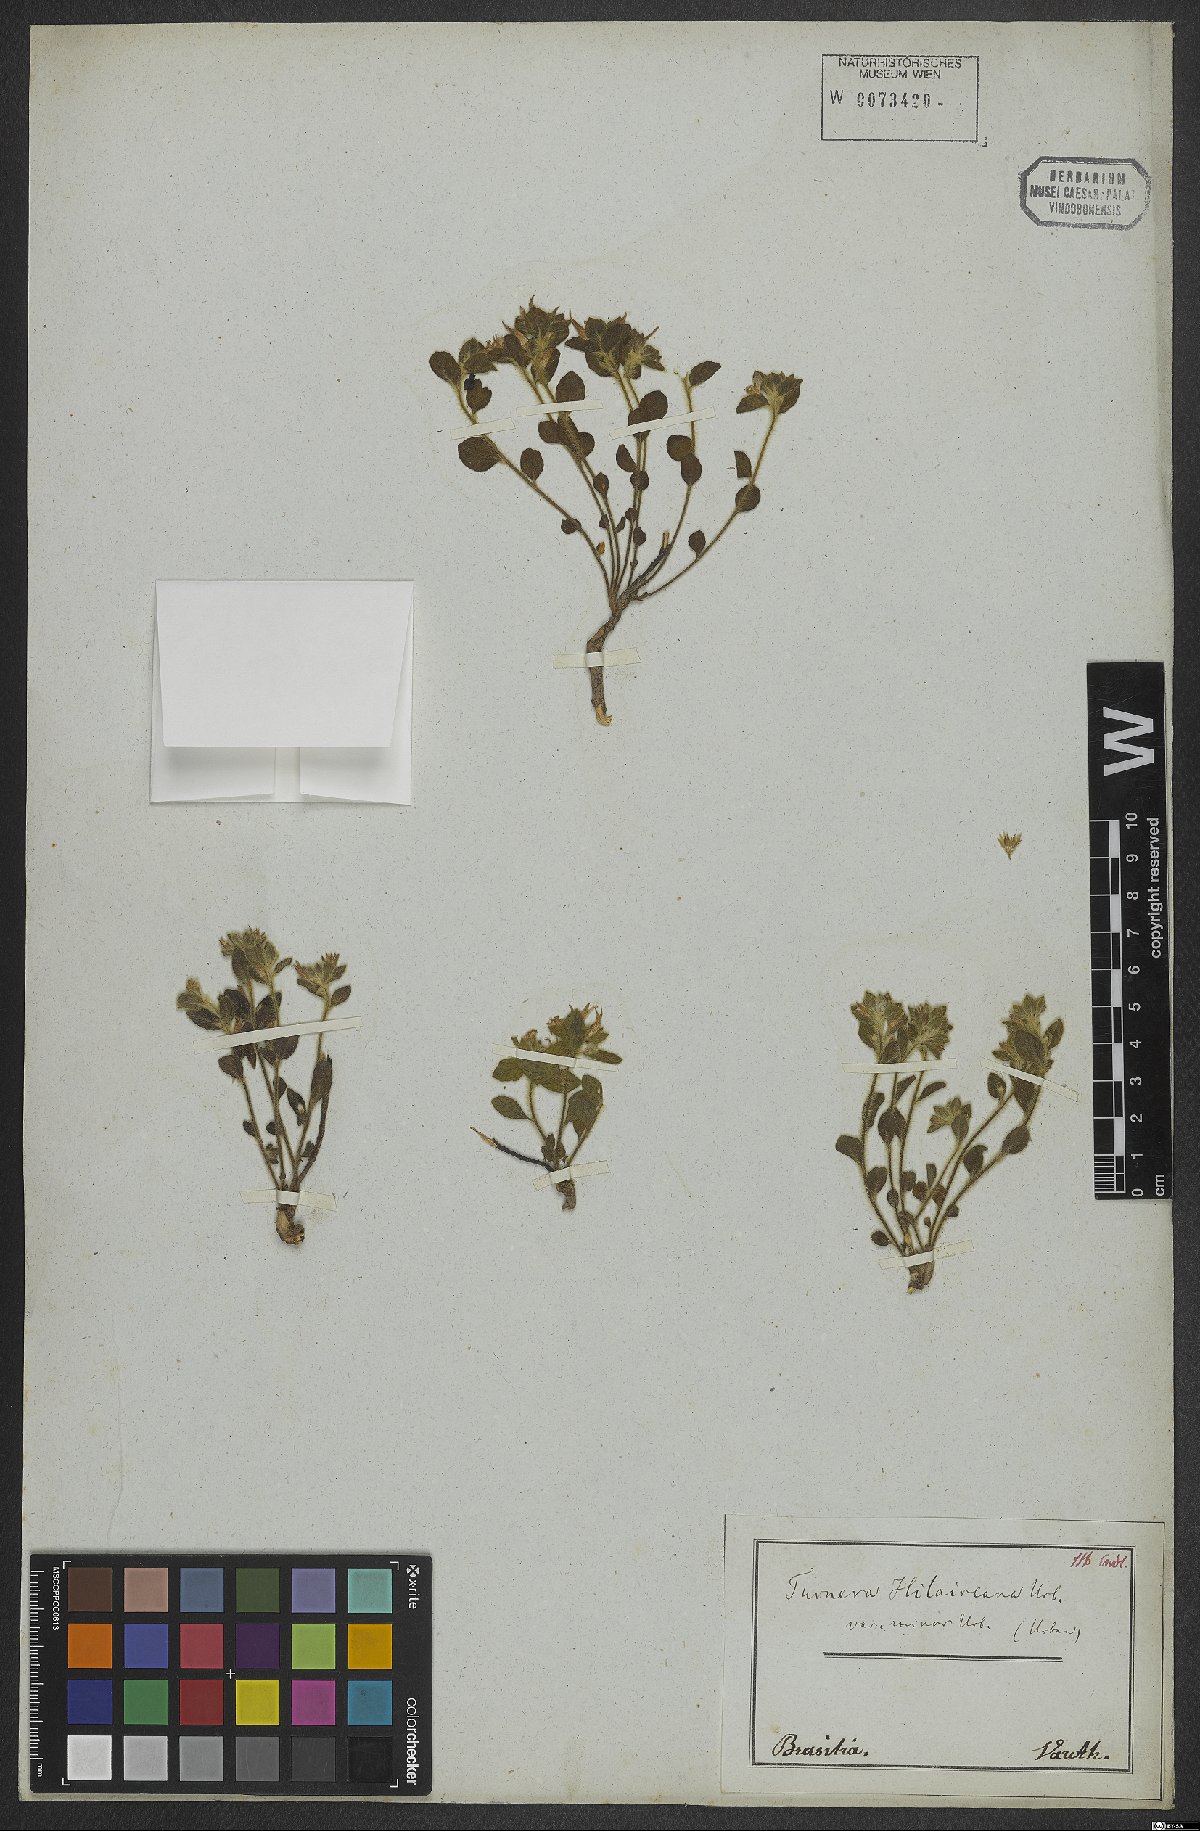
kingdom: Plantae
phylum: Tracheophyta
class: Magnoliopsida
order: Malpighiales
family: Turneraceae
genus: Turnera
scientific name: Turnera hilaireana
